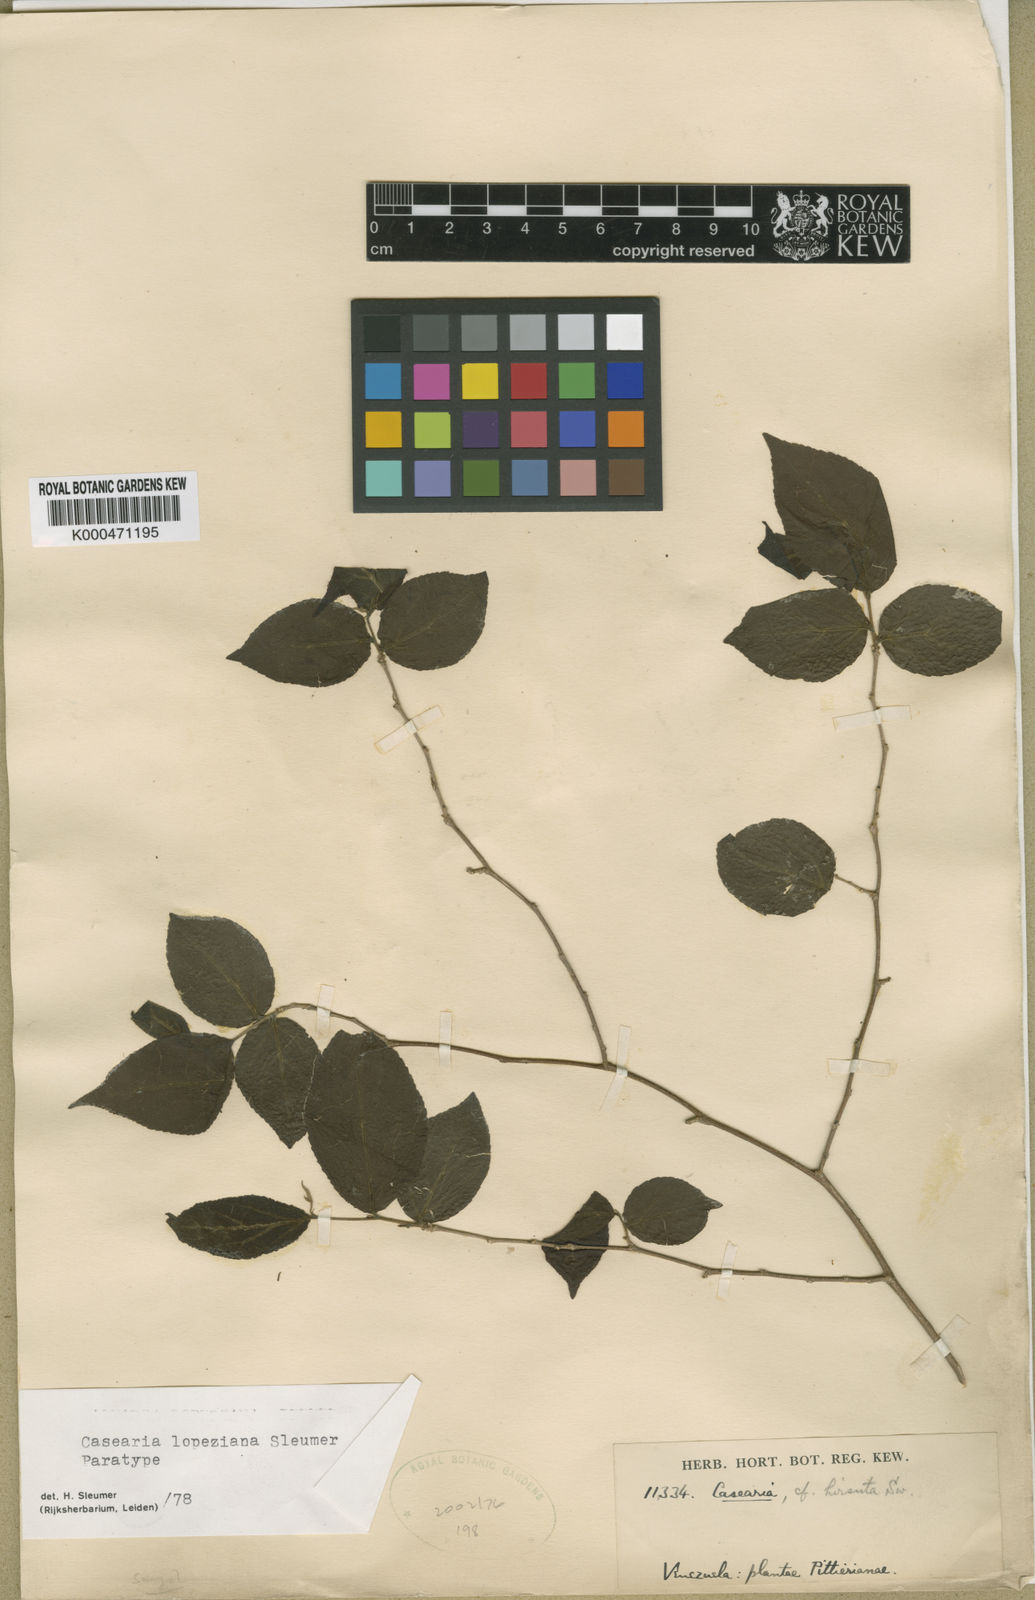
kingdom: Plantae
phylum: Tracheophyta
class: Magnoliopsida
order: Malpighiales
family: Salicaceae
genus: Casearia
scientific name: Casearia lopeziana
